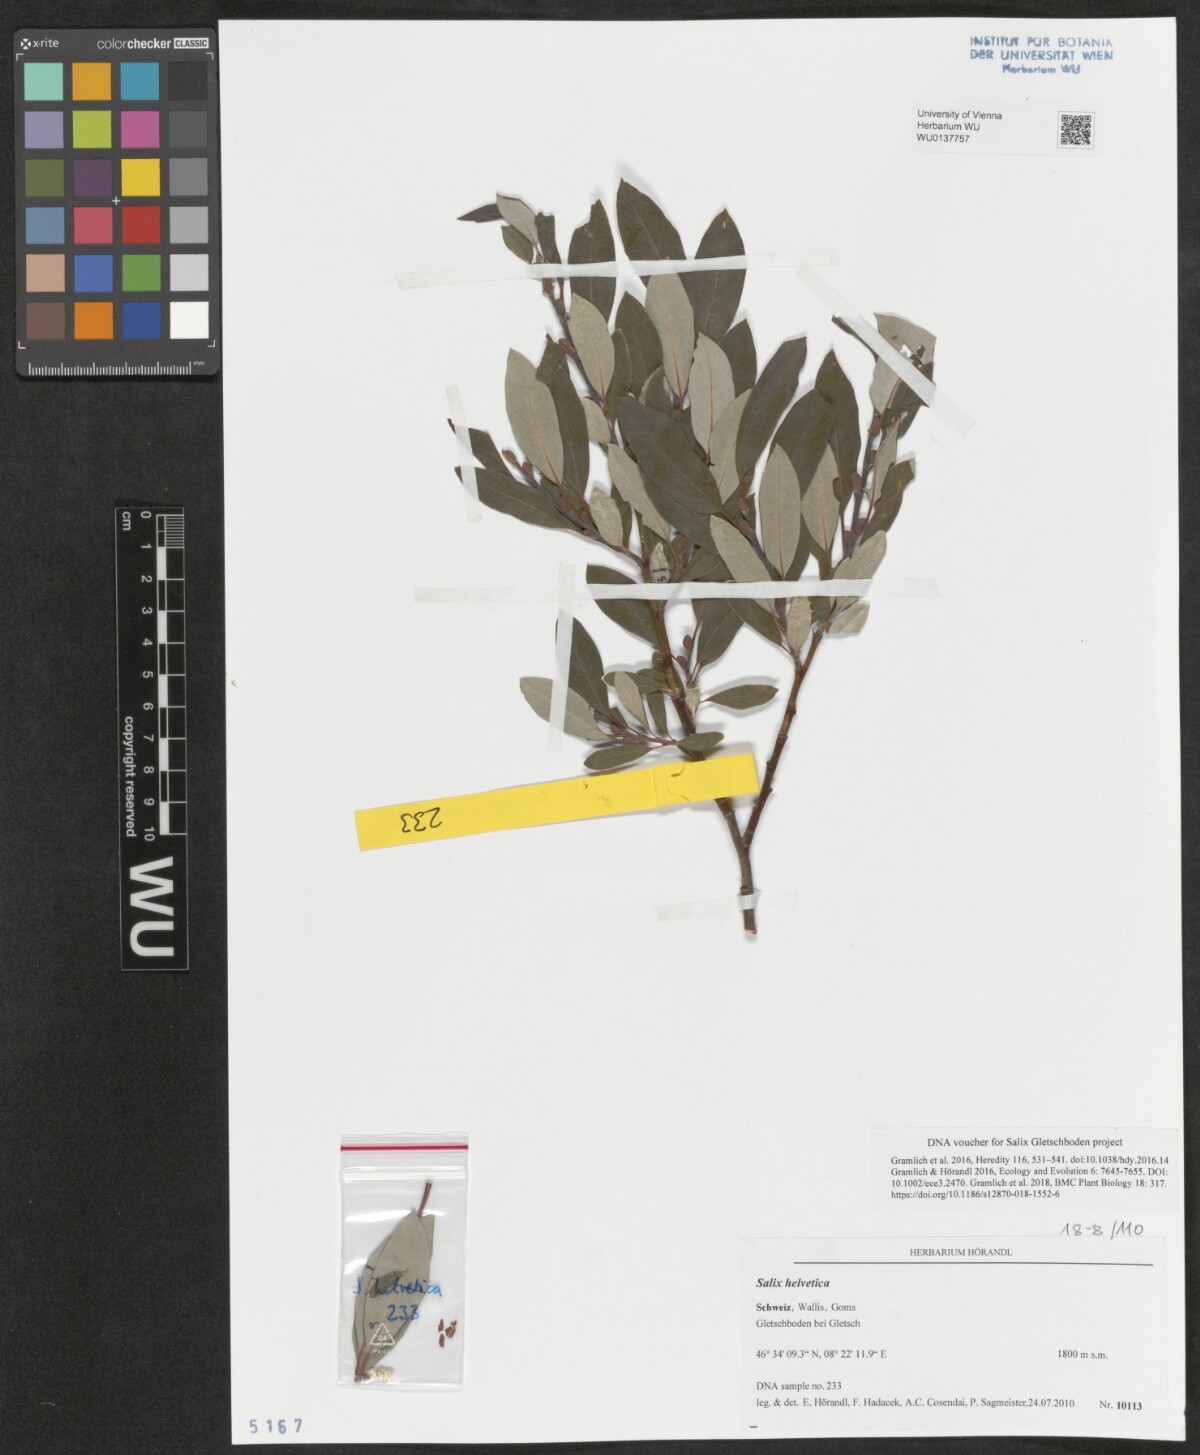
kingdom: Plantae
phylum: Tracheophyta
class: Magnoliopsida
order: Malpighiales
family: Salicaceae
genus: Salix
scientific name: Salix helvetica
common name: Swiss willow
